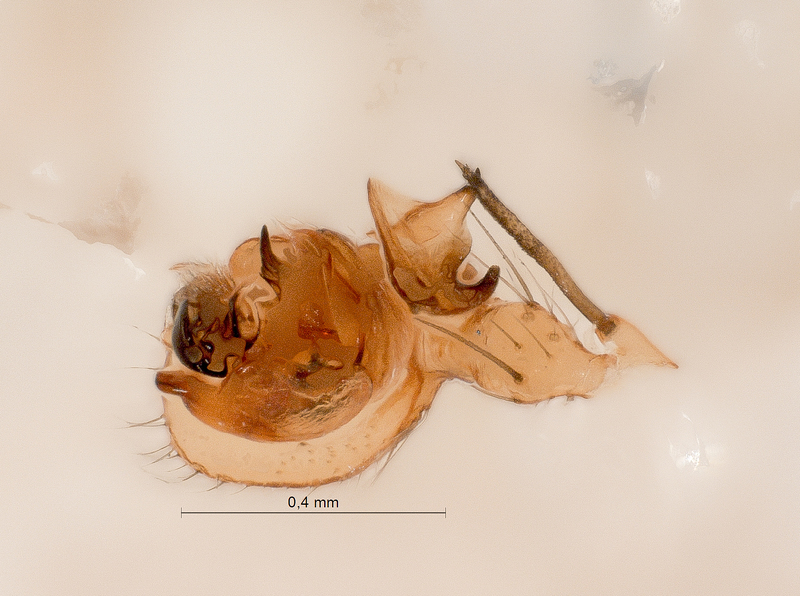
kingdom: Animalia
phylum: Arthropoda
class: Arachnida
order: Araneae
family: Linyphiidae
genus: Bolyphantes
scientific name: Bolyphantes alticeps
